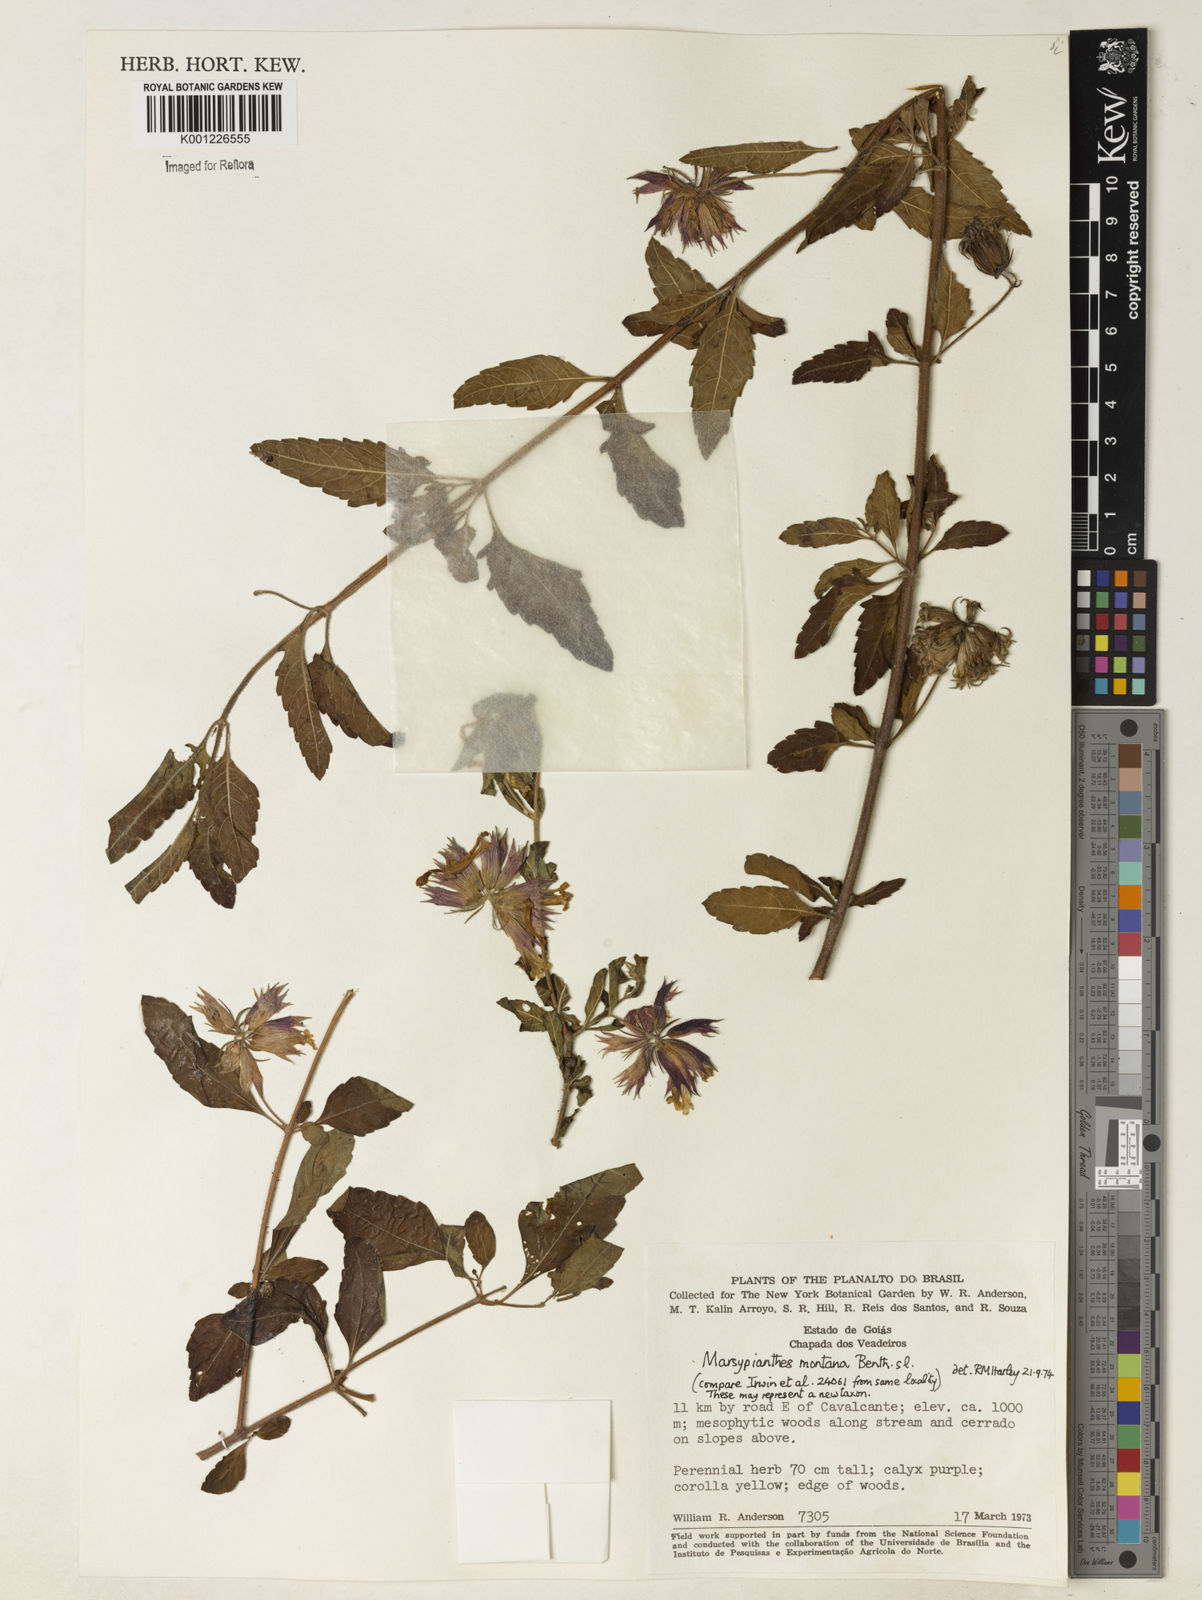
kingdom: Plantae
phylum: Tracheophyta
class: Magnoliopsida
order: Lamiales
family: Lamiaceae
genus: Marsypianthes
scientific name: Marsypianthes burchellii
